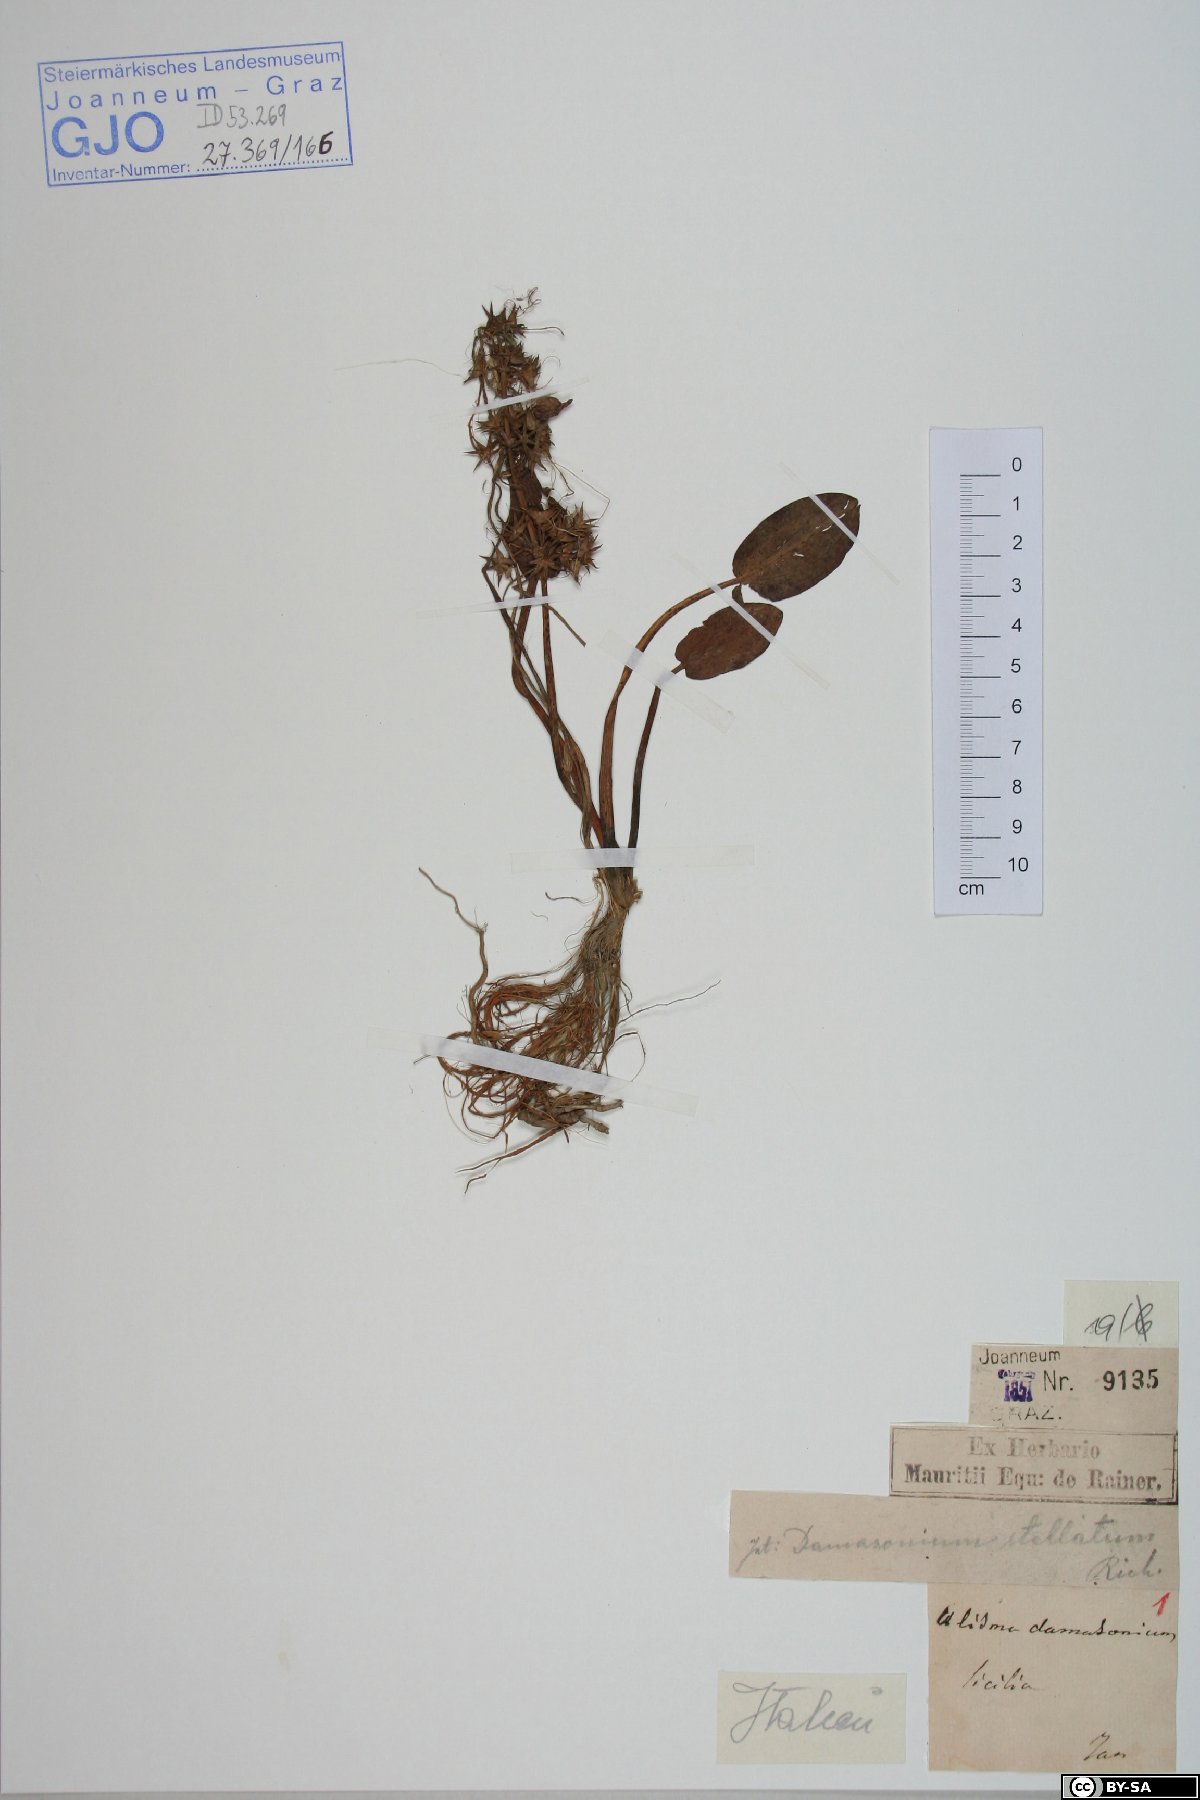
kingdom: Plantae
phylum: Tracheophyta
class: Liliopsida
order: Alismatales
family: Alismataceae
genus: Damasonium
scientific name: Damasonium alisma
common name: Starfruit
